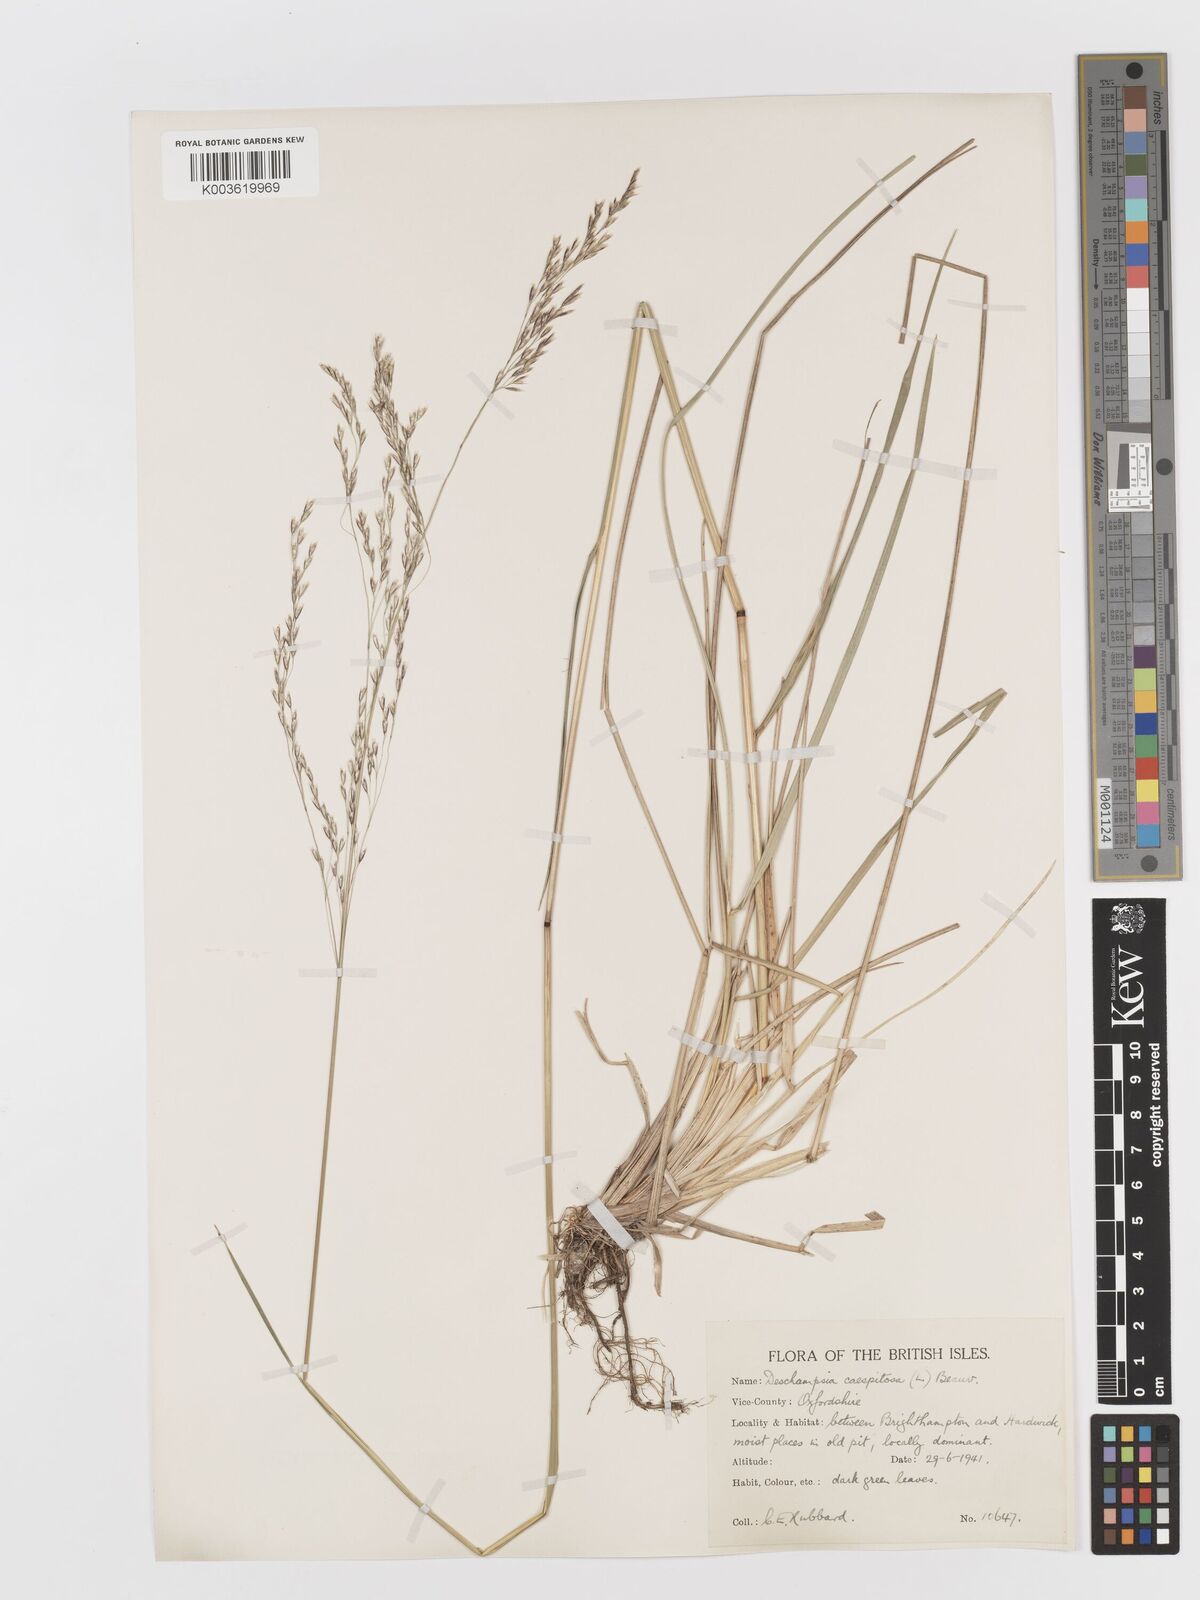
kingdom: Plantae
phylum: Tracheophyta
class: Liliopsida
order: Poales
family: Poaceae
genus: Deschampsia
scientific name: Deschampsia cespitosa
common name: Tufted hair-grass
